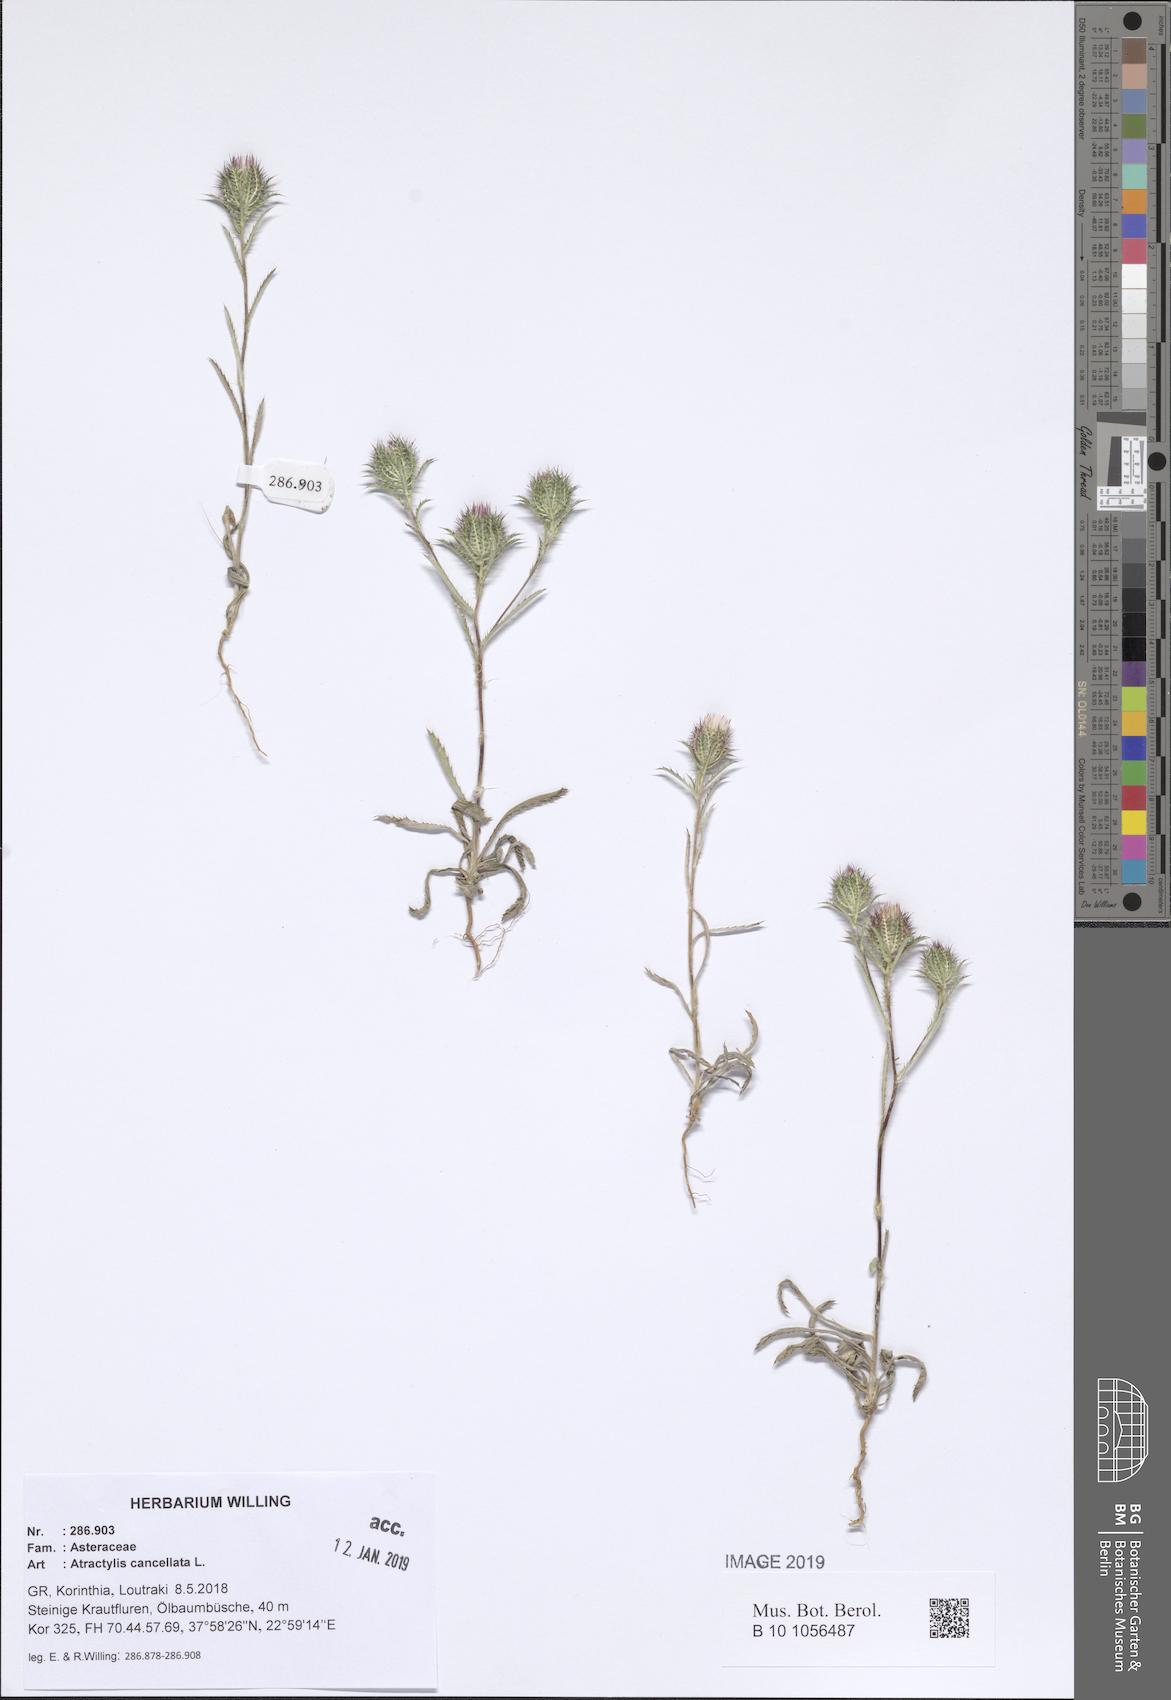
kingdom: Plantae
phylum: Tracheophyta
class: Magnoliopsida
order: Asterales
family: Asteraceae
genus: Atractylis
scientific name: Atractylis cancellata
